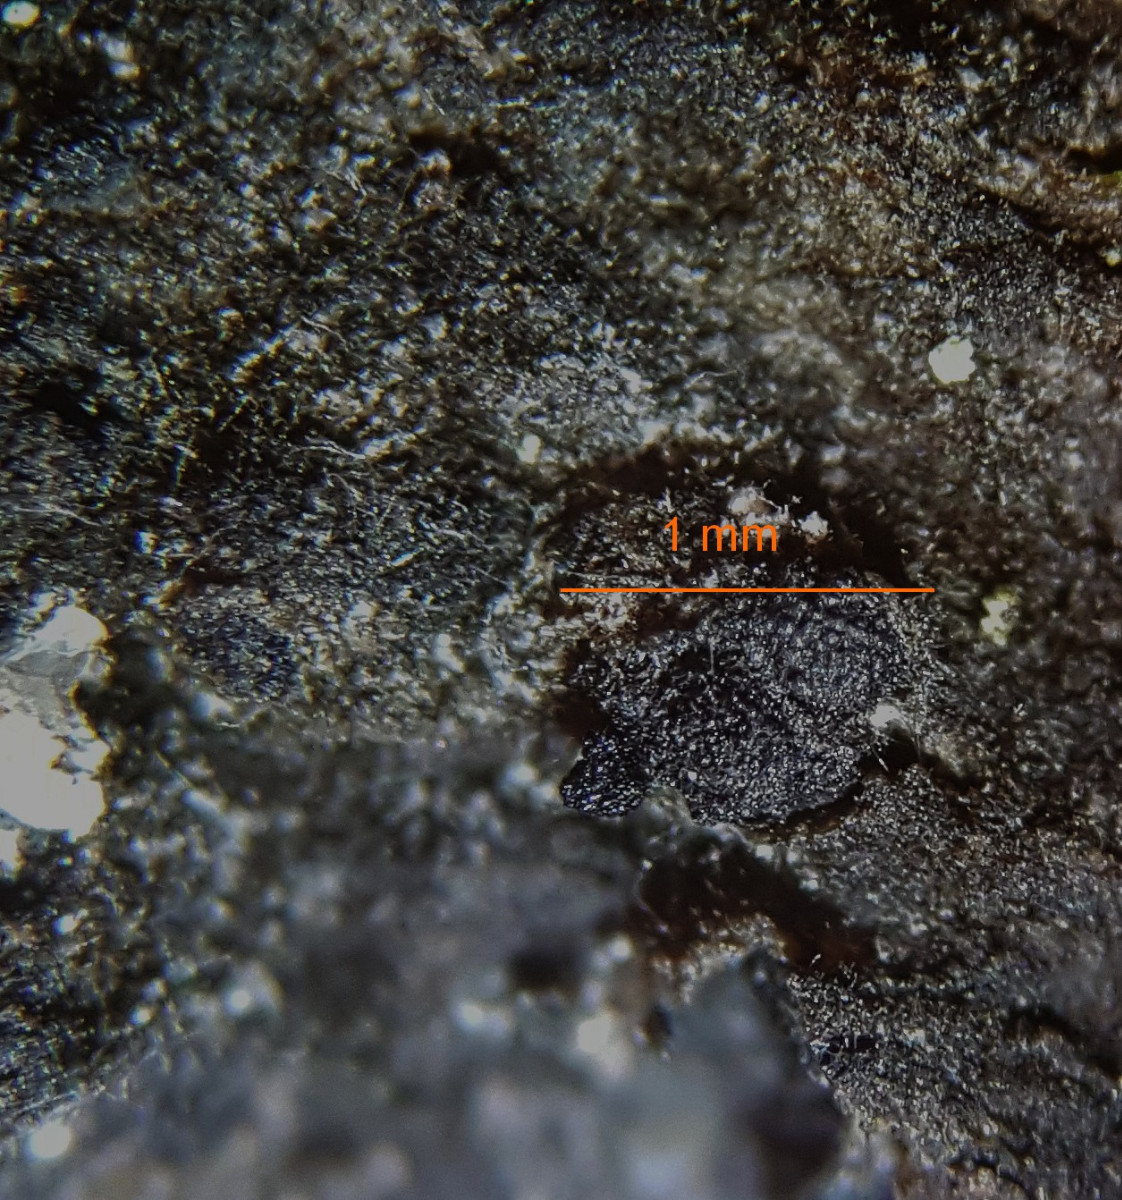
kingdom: Fungi
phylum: Ascomycota
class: Dothideomycetes
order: Botryosphaeriales
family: Botryosphaeriaceae
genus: Diplodia
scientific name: Diplodia
